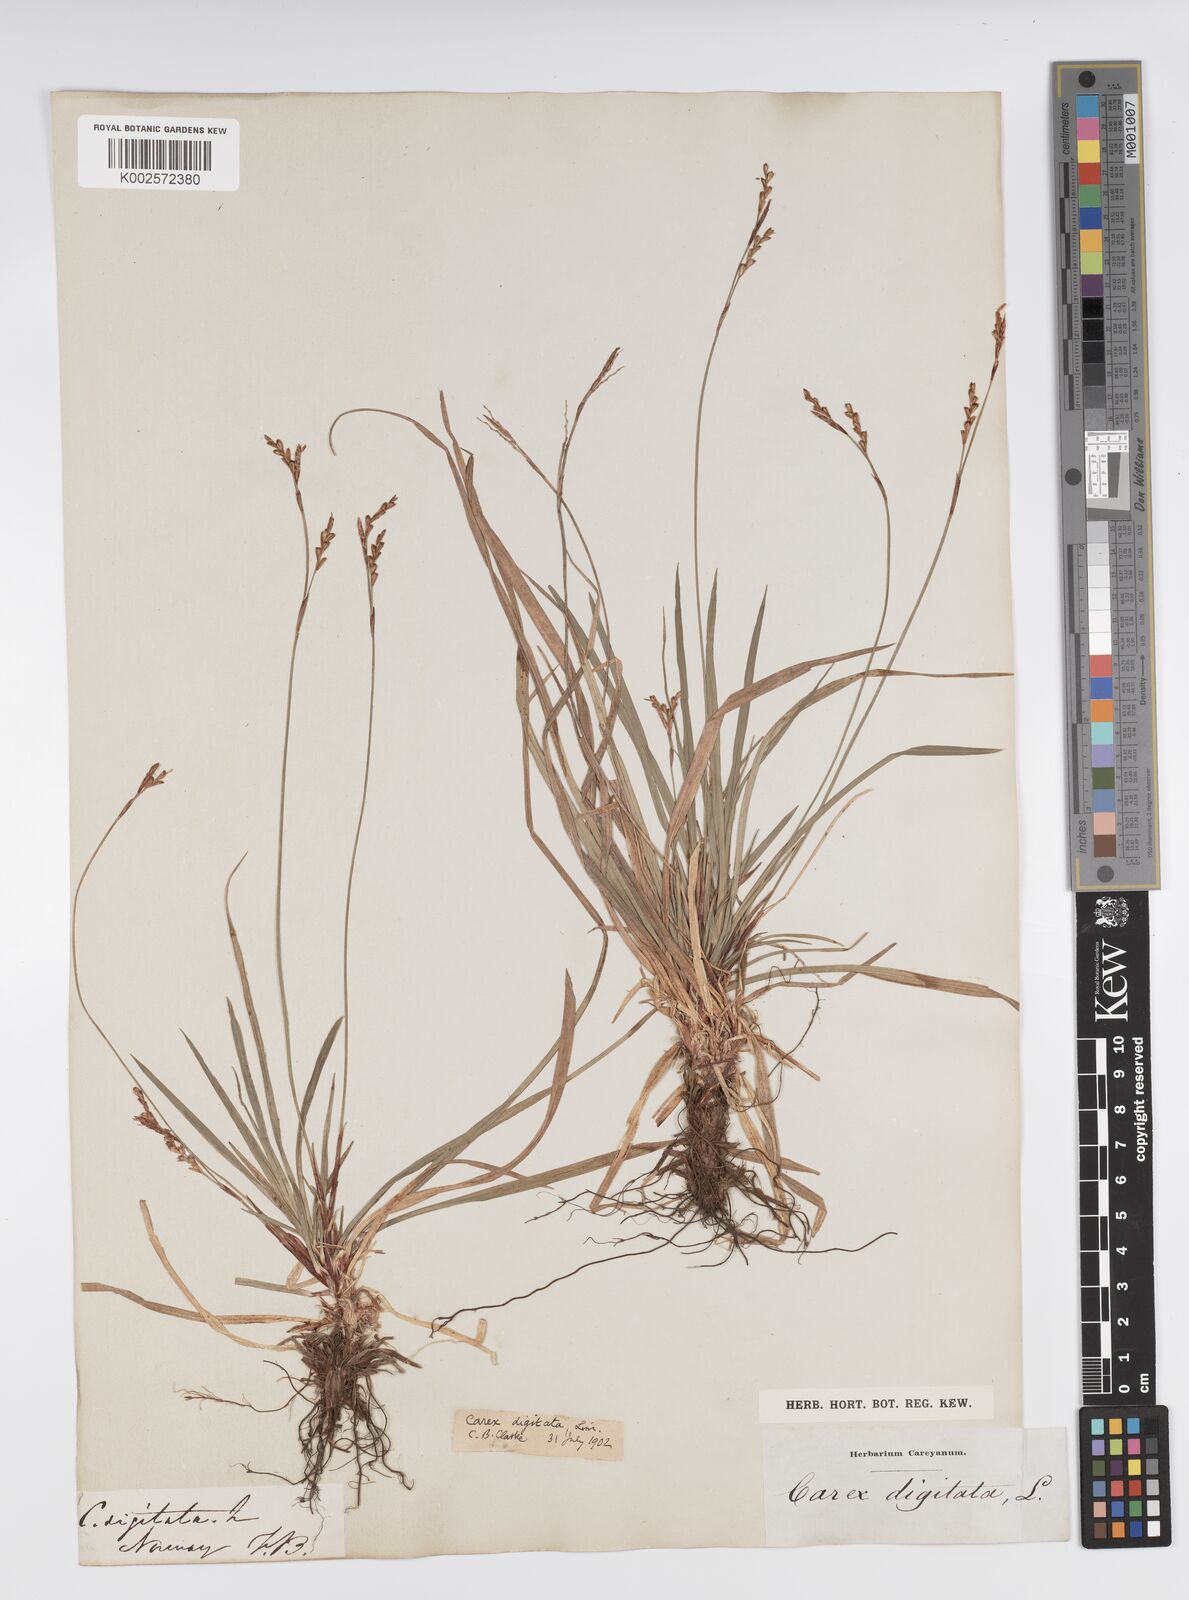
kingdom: Plantae
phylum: Tracheophyta
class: Liliopsida
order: Poales
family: Cyperaceae
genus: Carex
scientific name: Carex digitata
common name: Fingered sedge
